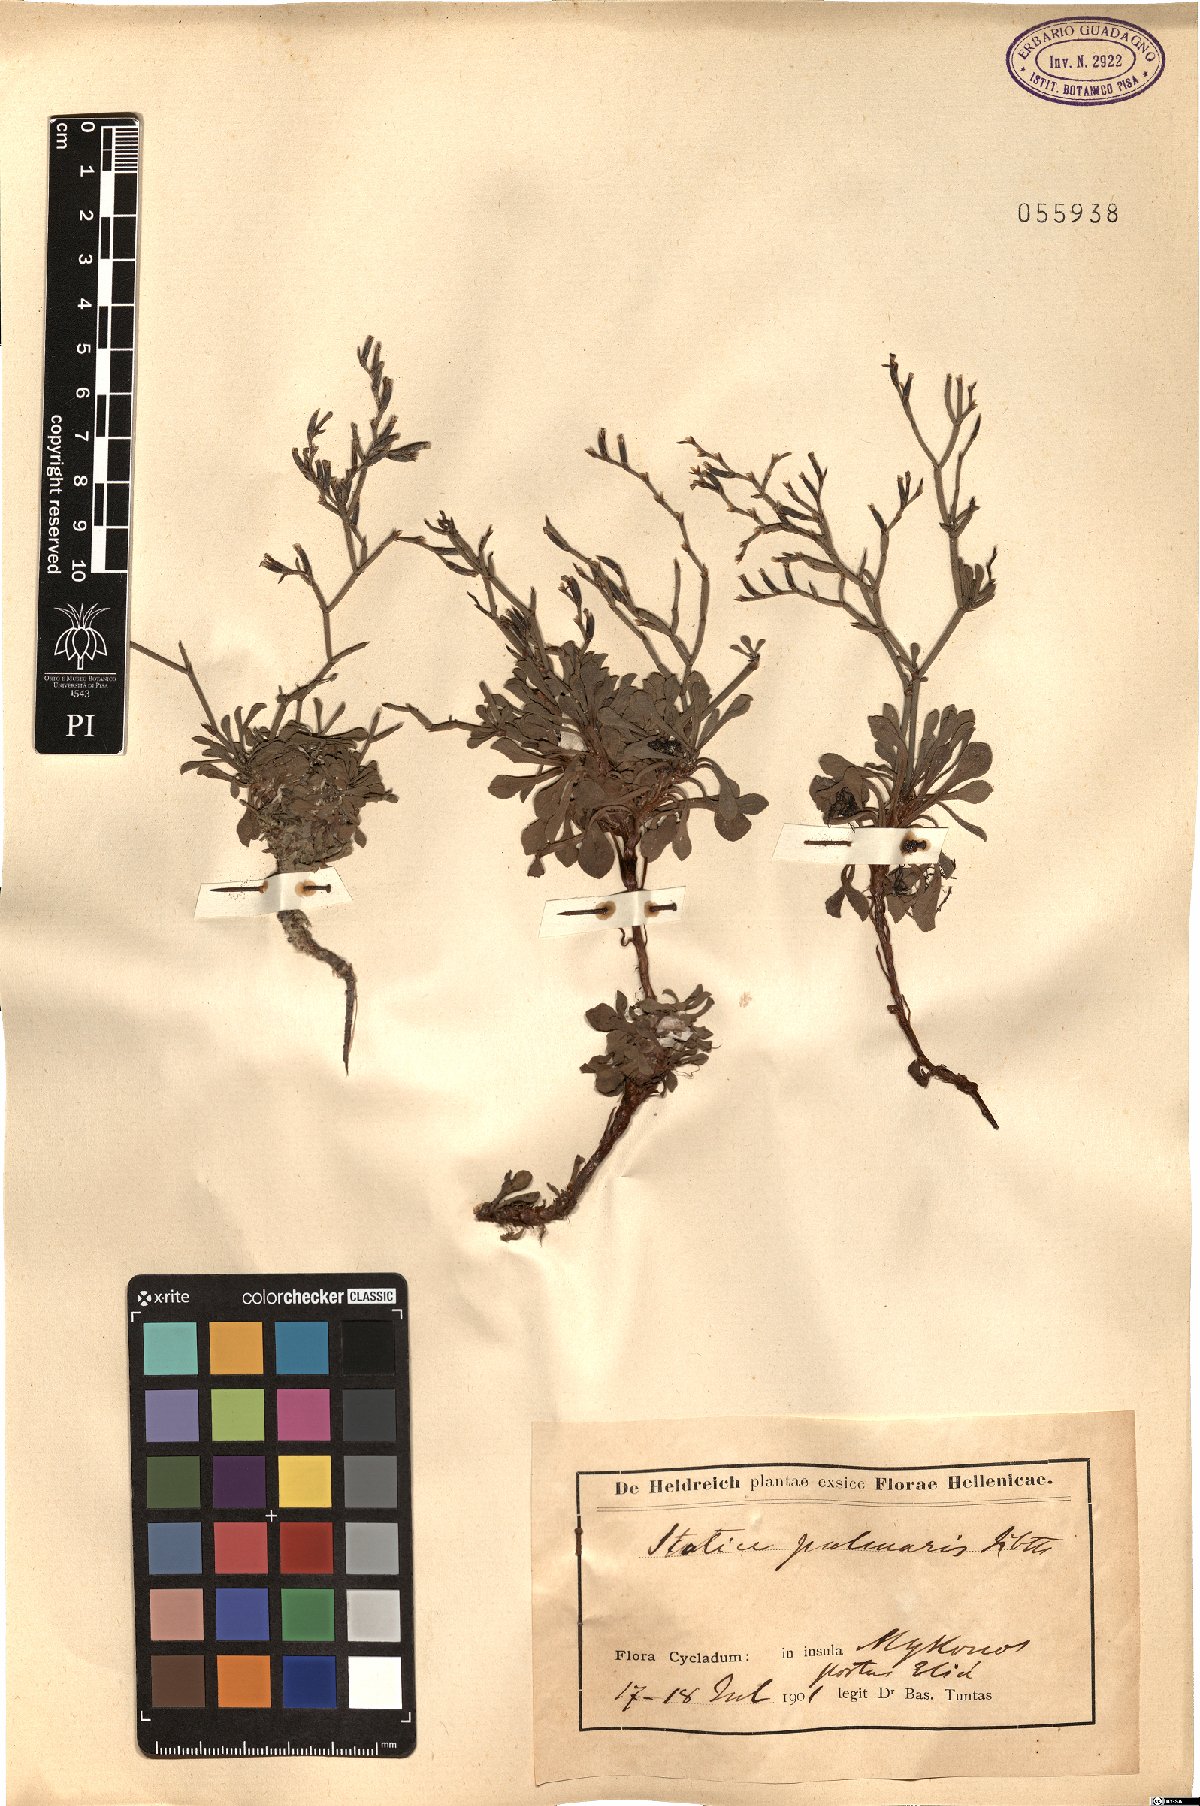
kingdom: Plantae
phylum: Tracheophyta
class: Magnoliopsida
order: Caryophyllales
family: Plumbaginaceae
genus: Limonium
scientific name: Limonium palmare
